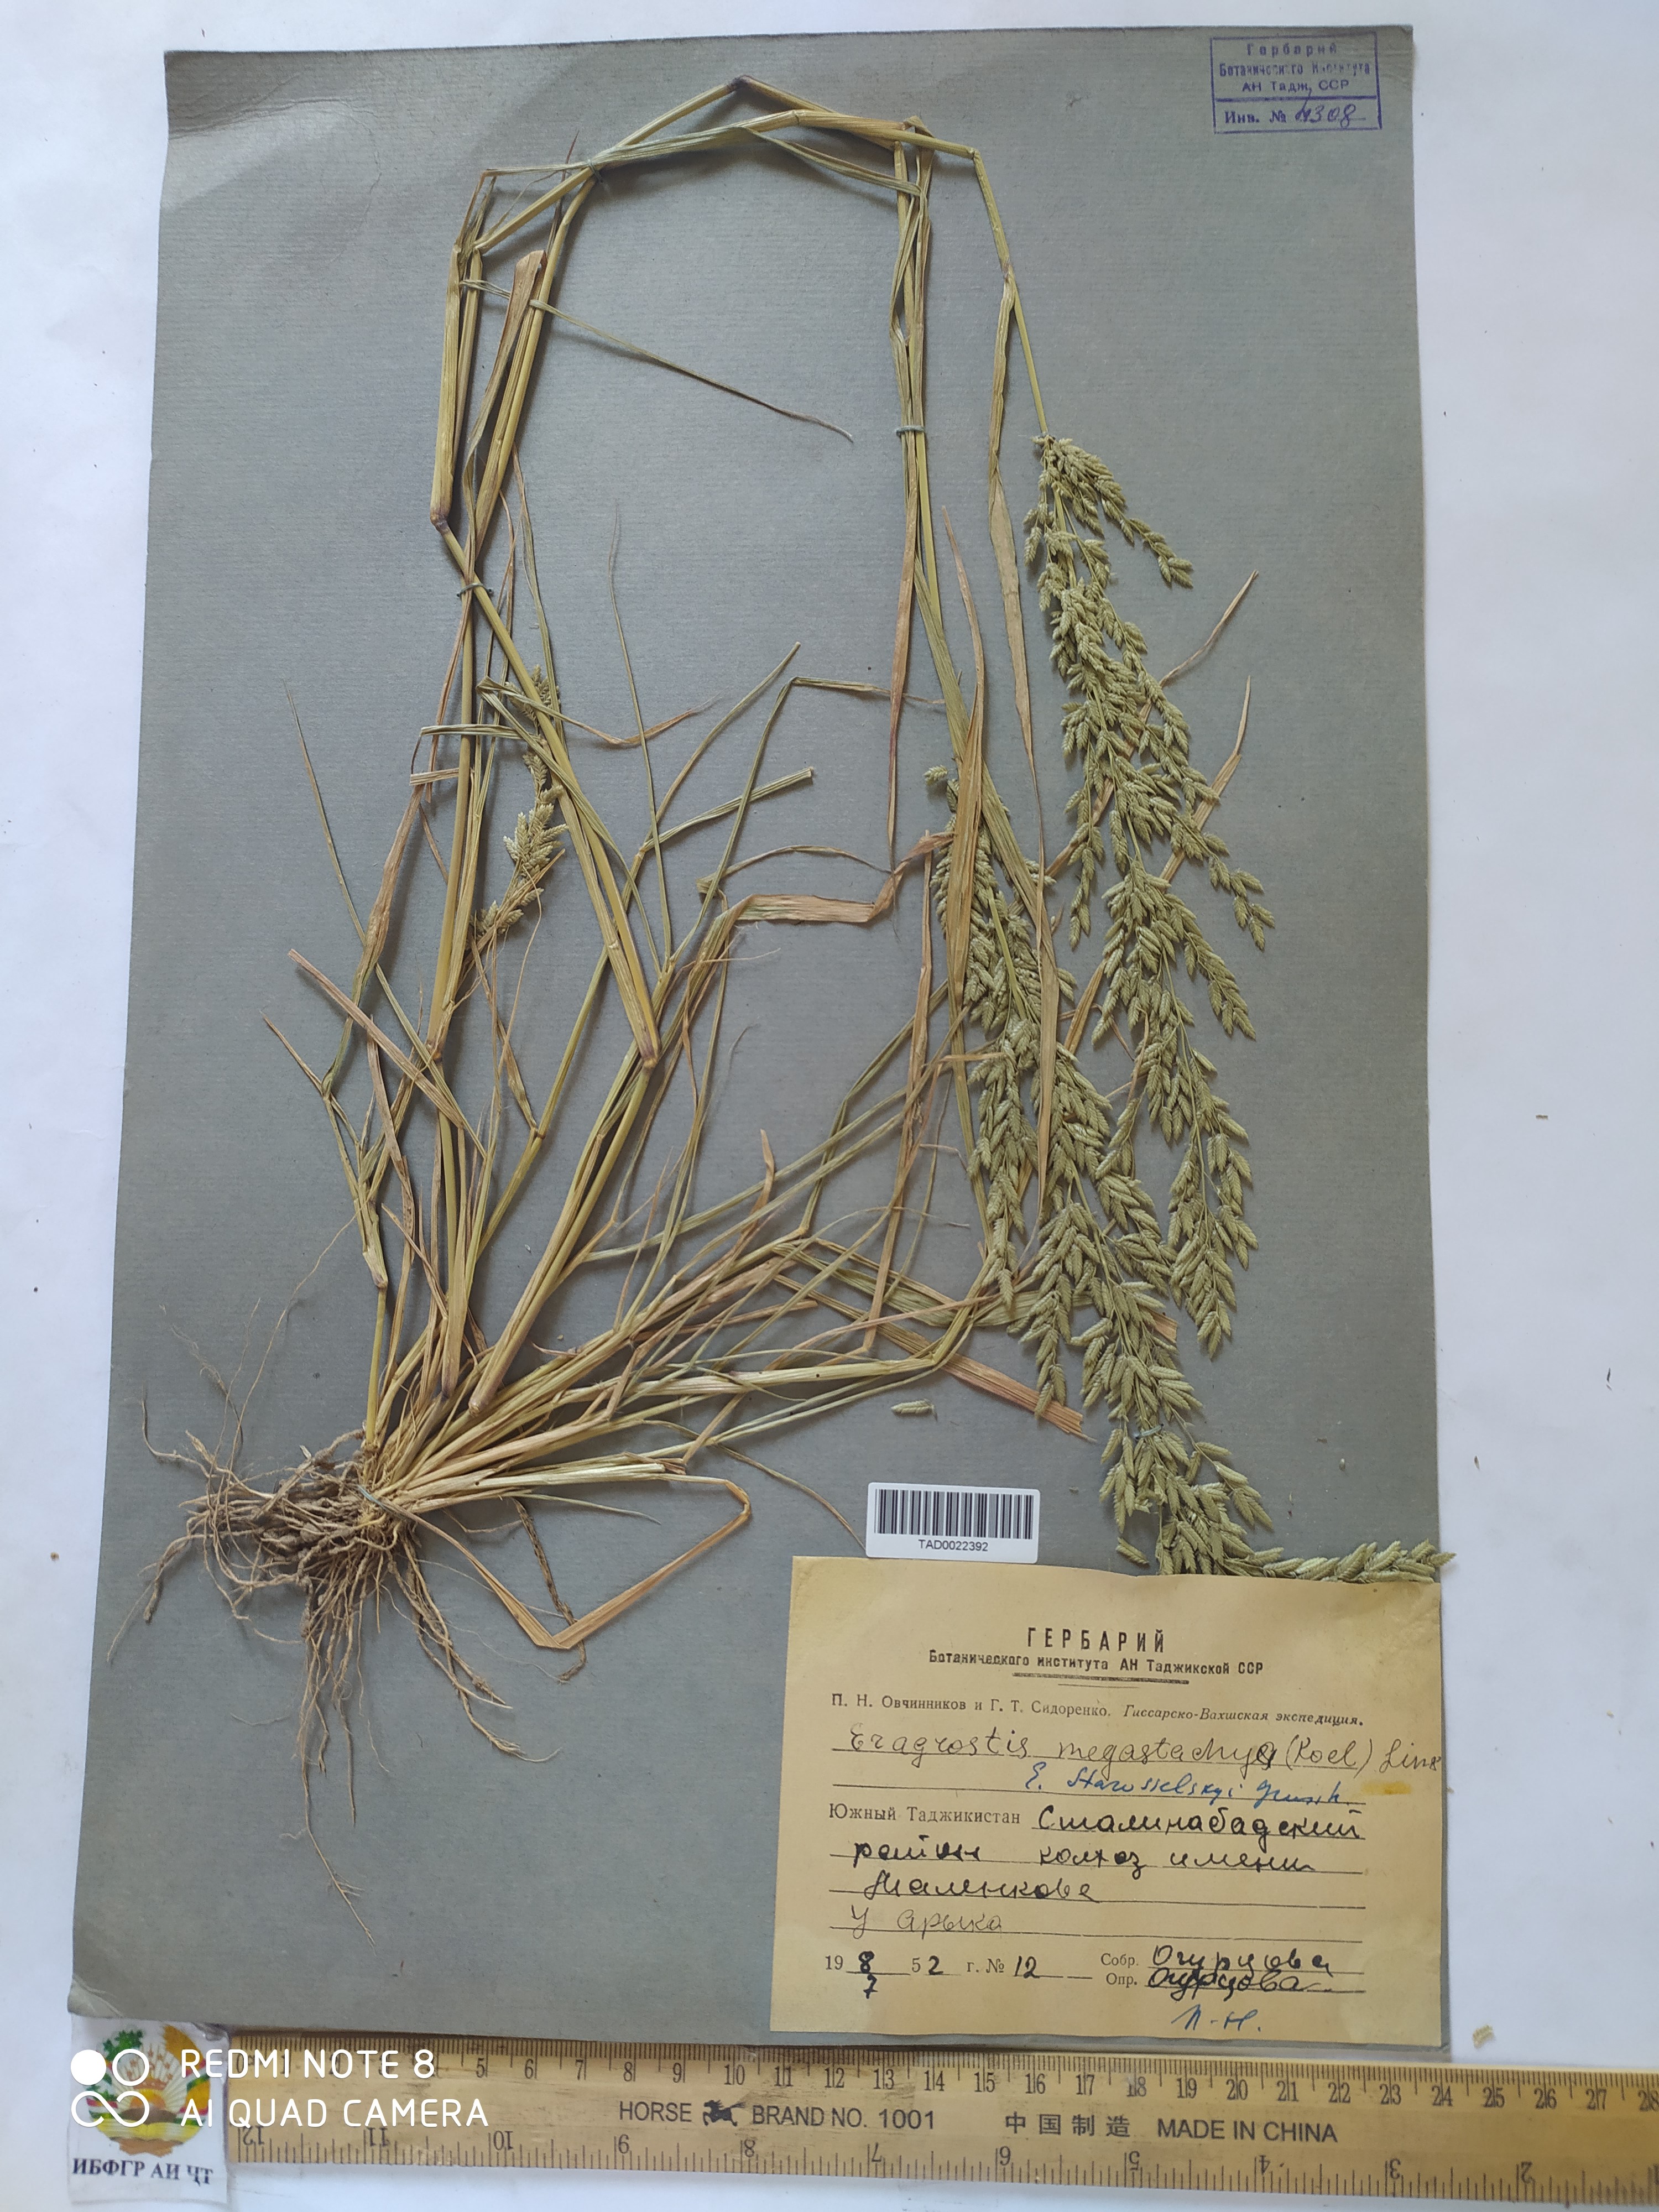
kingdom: Plantae
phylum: Tracheophyta
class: Liliopsida
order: Poales
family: Poaceae
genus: Eragrostis
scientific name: Eragrostis cilianensis
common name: Stinkgrass
